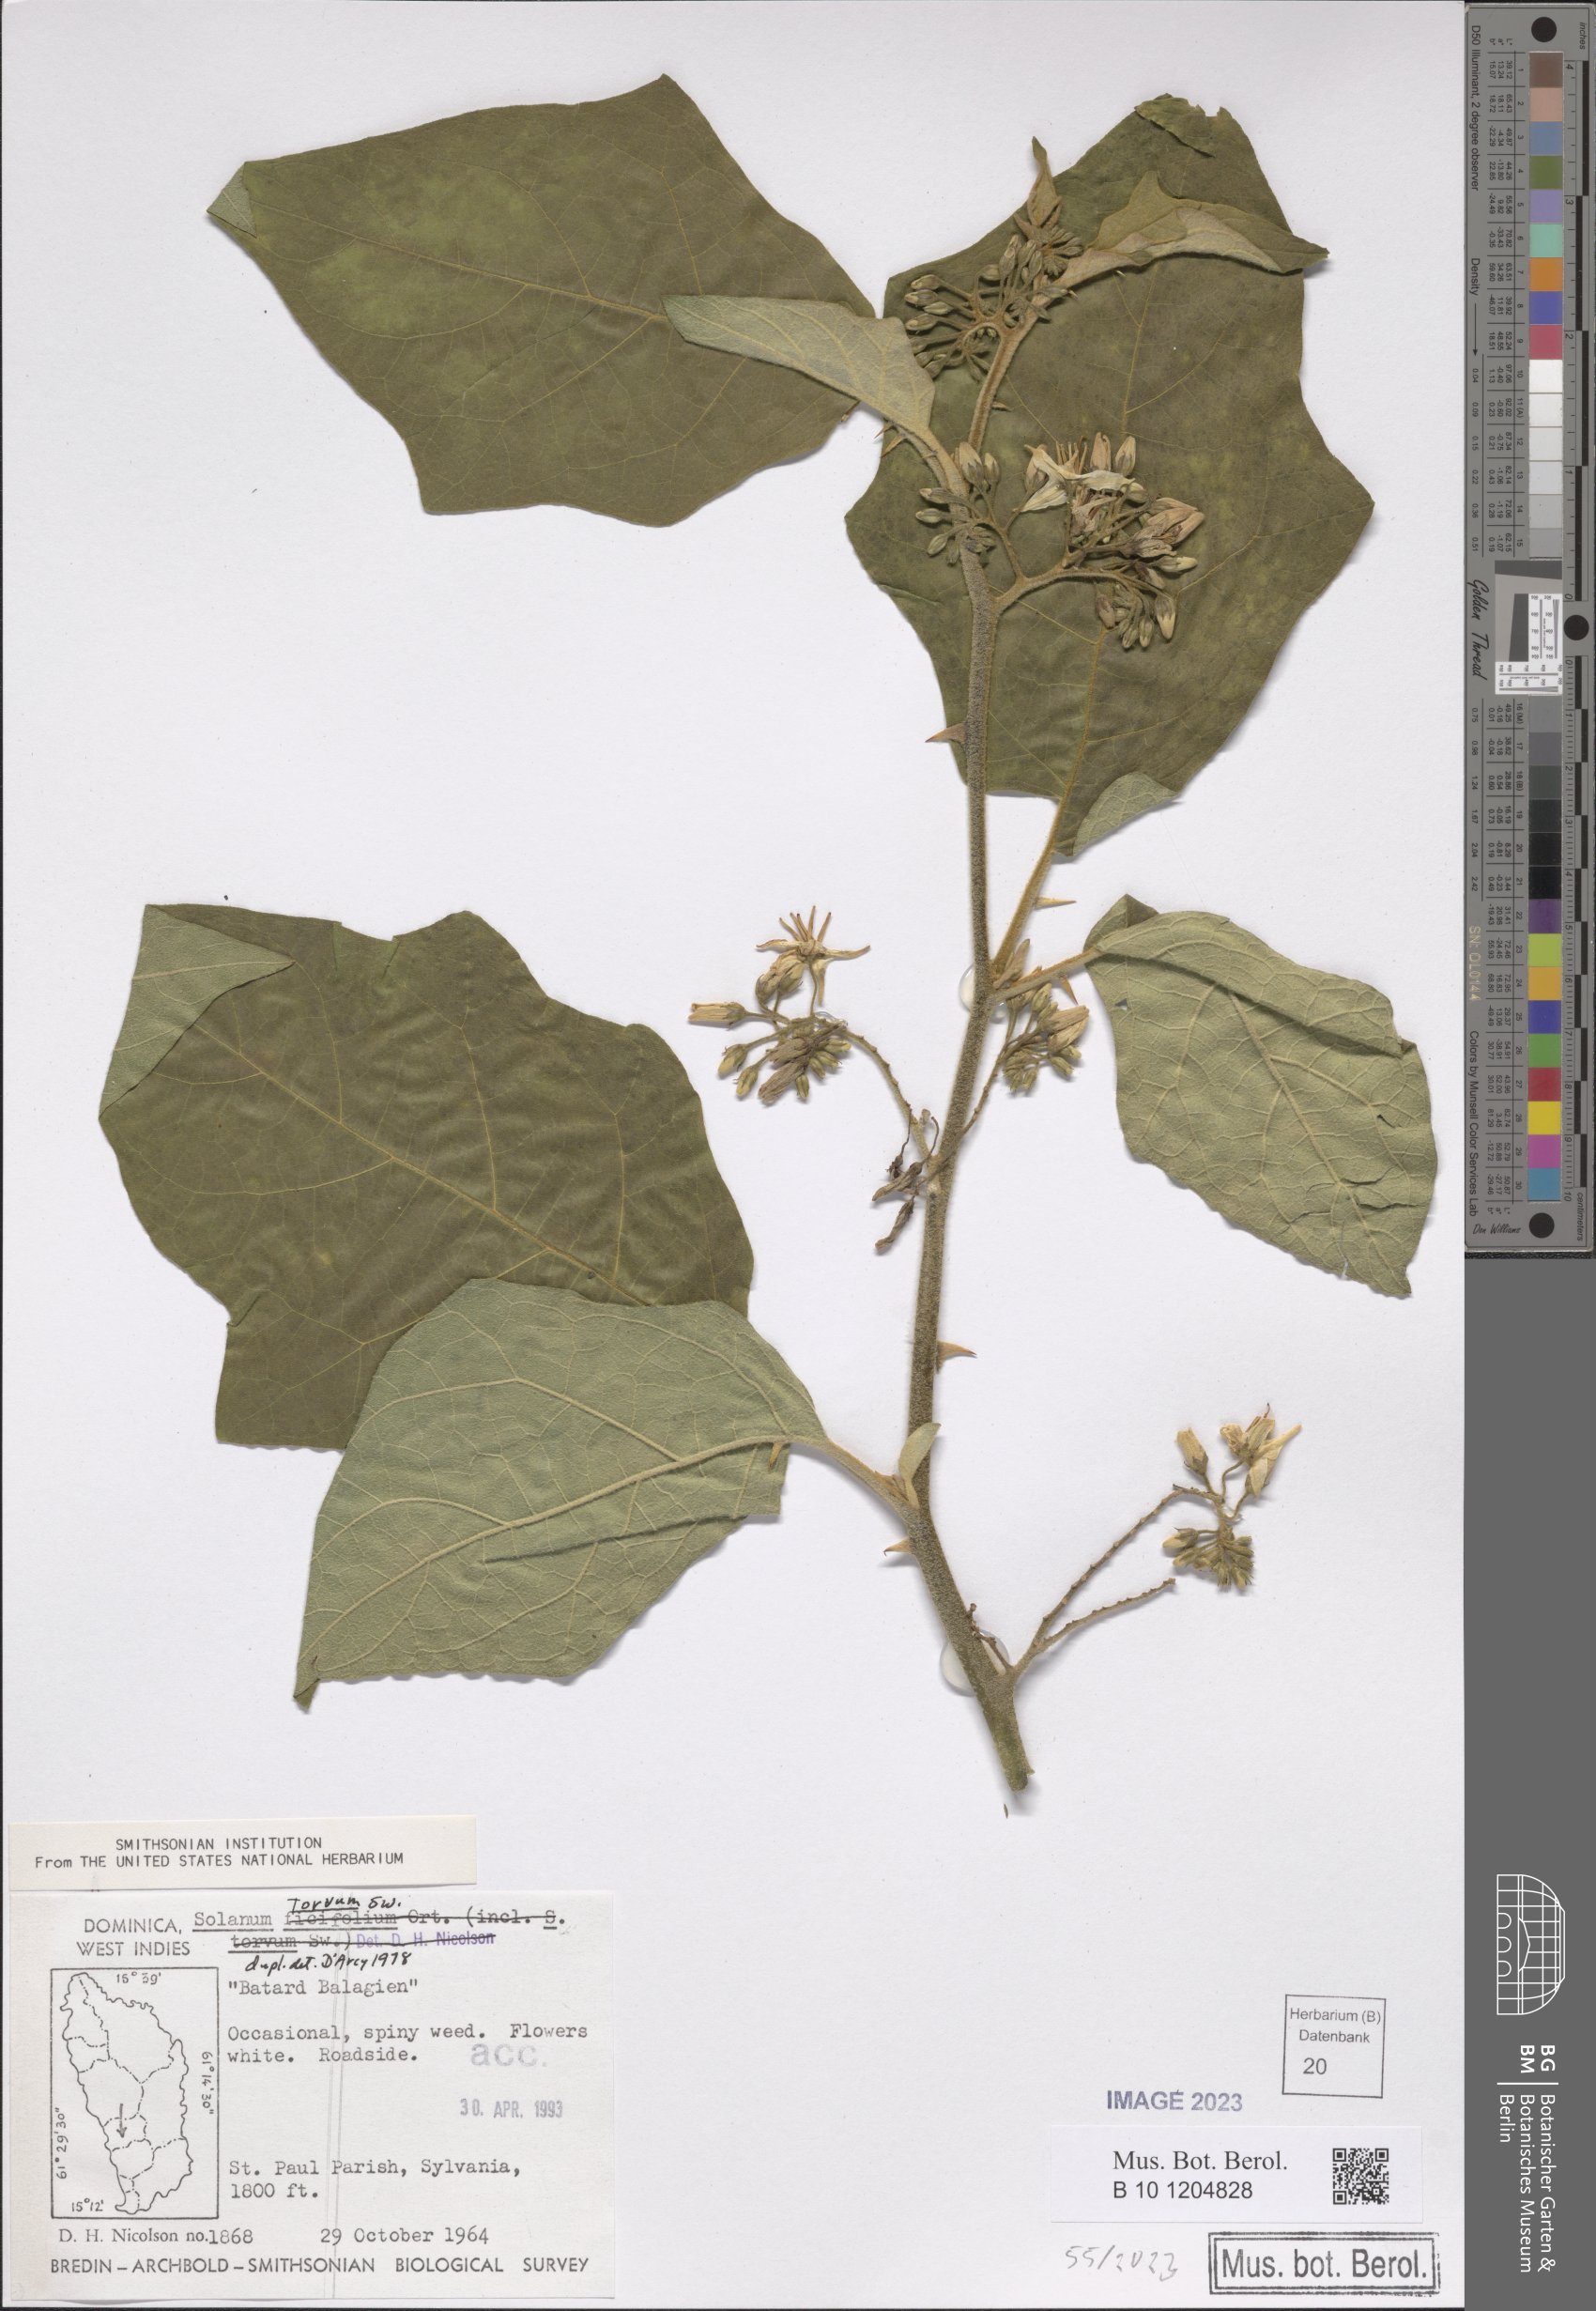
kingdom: Plantae
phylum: Tracheophyta
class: Magnoliopsida
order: Solanales
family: Solanaceae
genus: Solanum
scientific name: Solanum torvum
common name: Turkey berry
